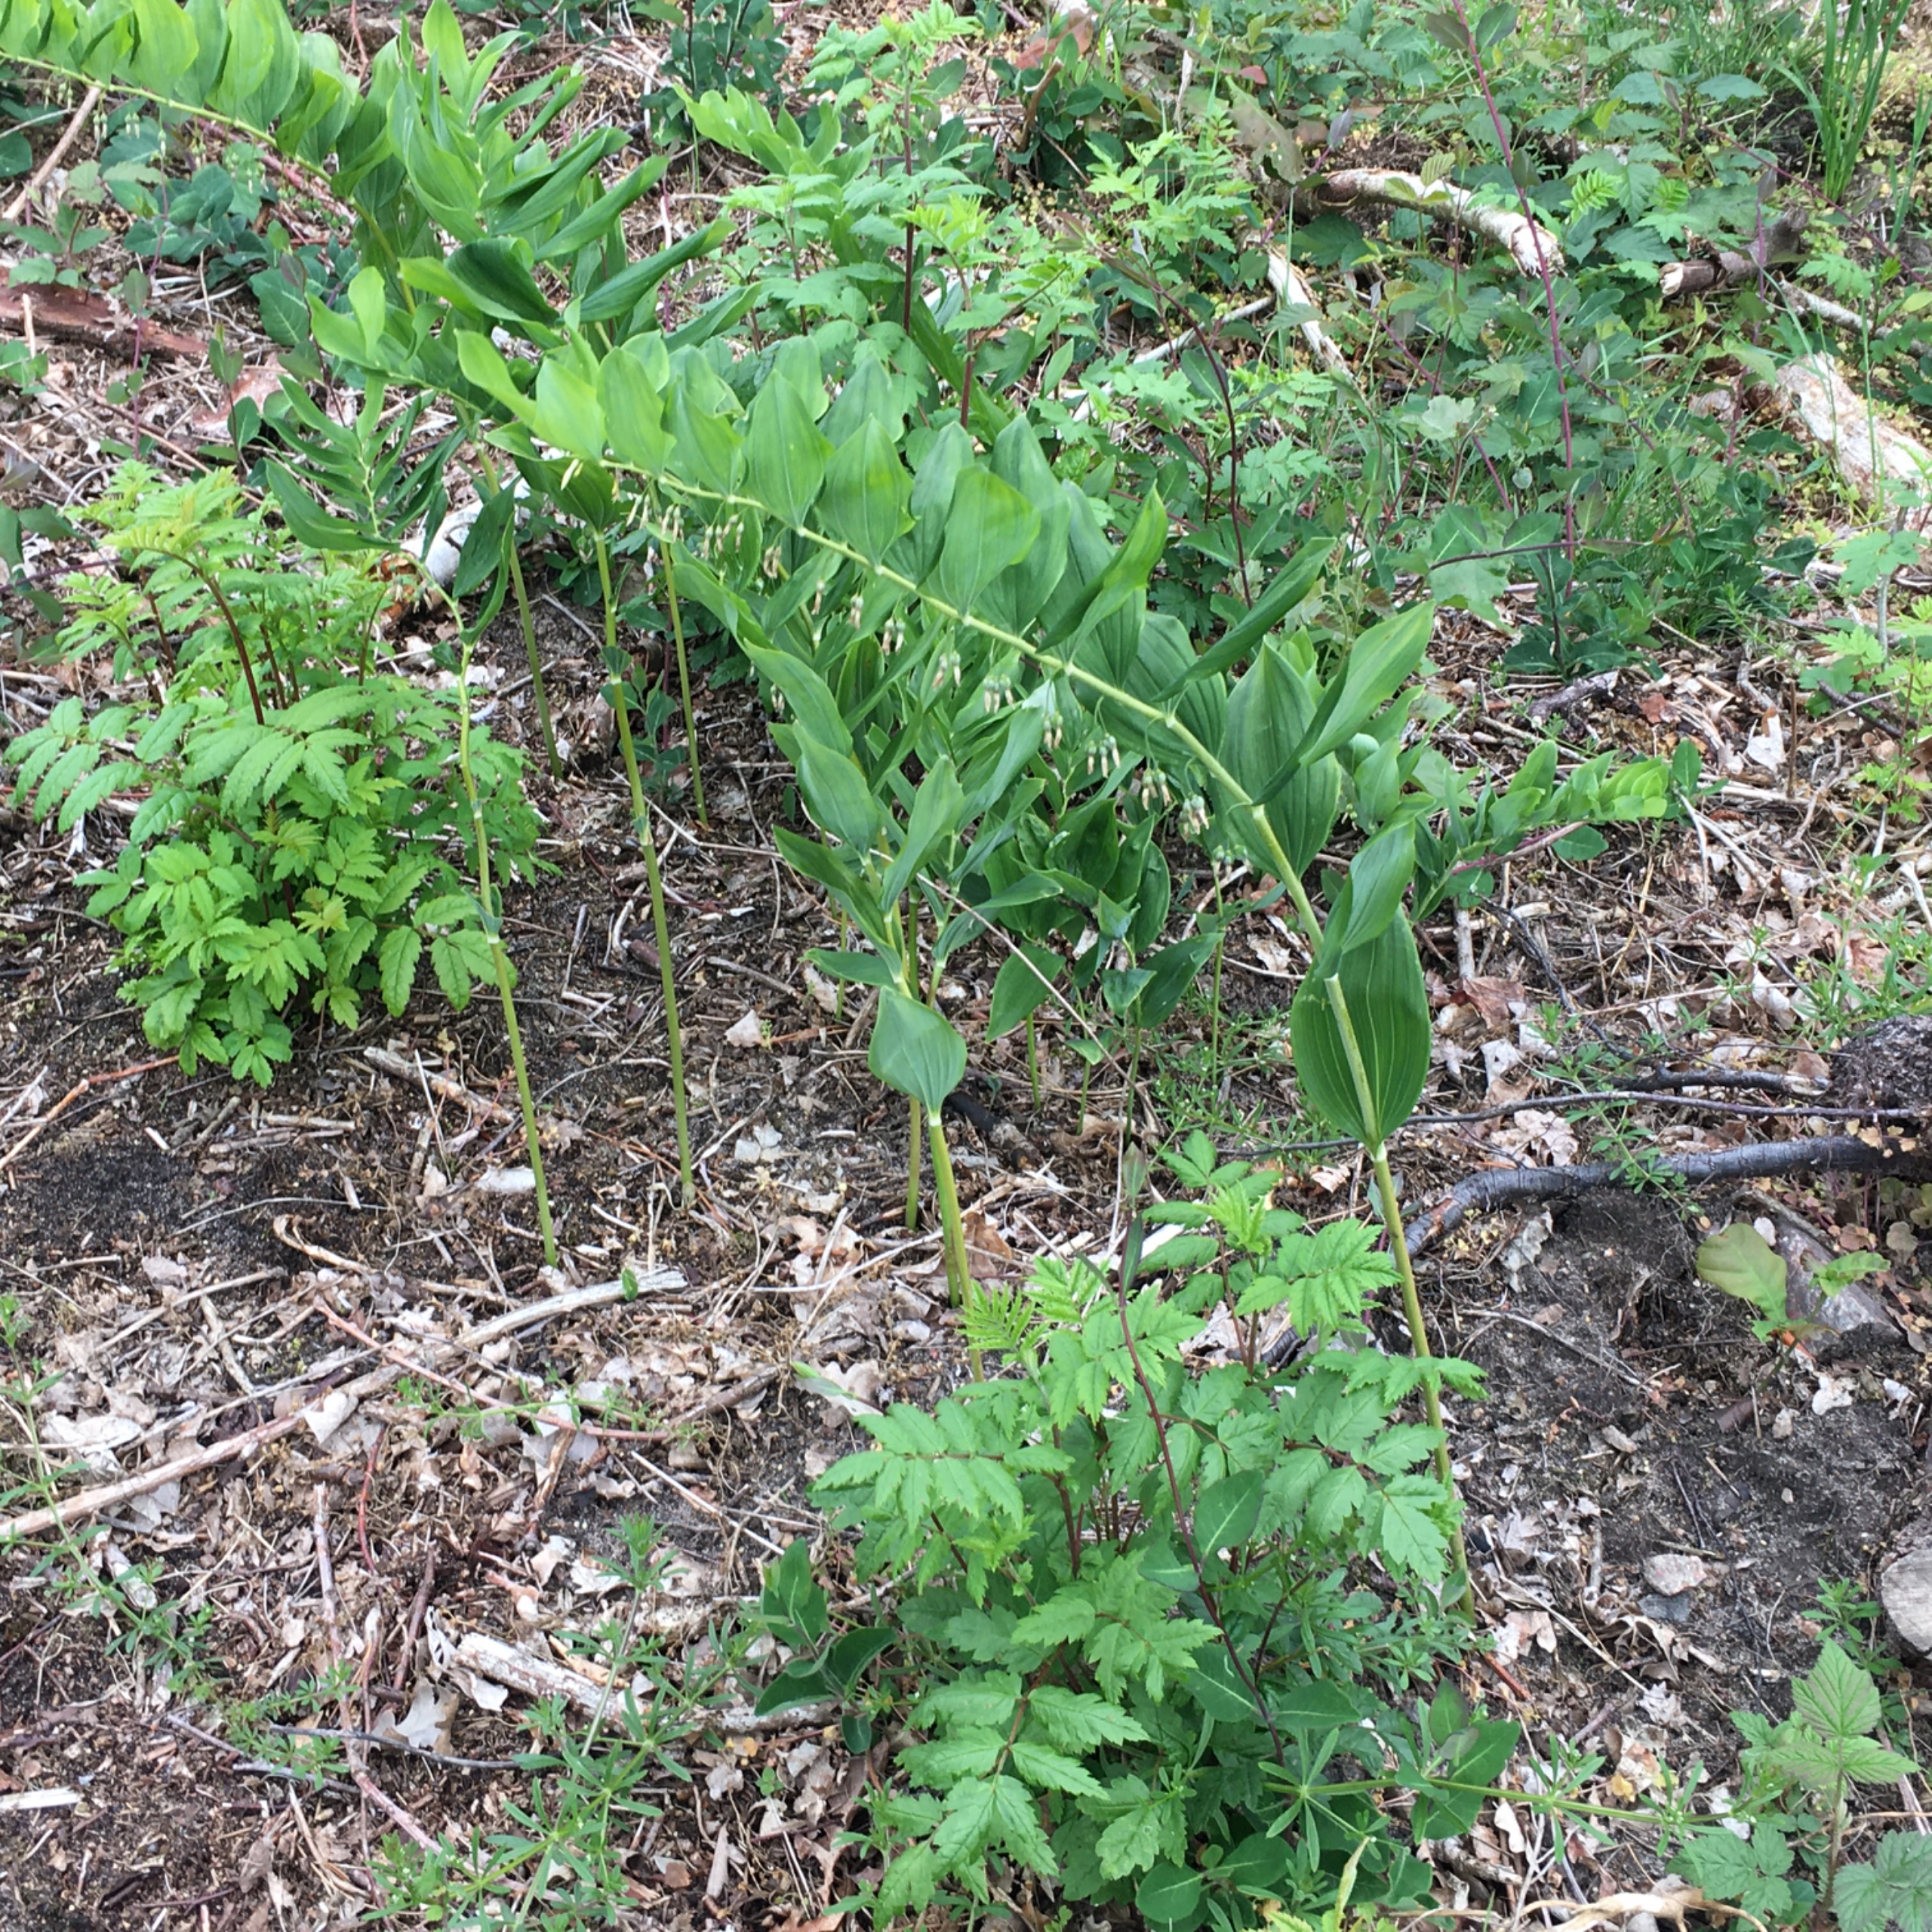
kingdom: Plantae
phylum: Tracheophyta
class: Liliopsida
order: Asparagales
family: Asparagaceae
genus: Polygonatum
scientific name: Polygonatum multiflorum
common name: Stor konval
